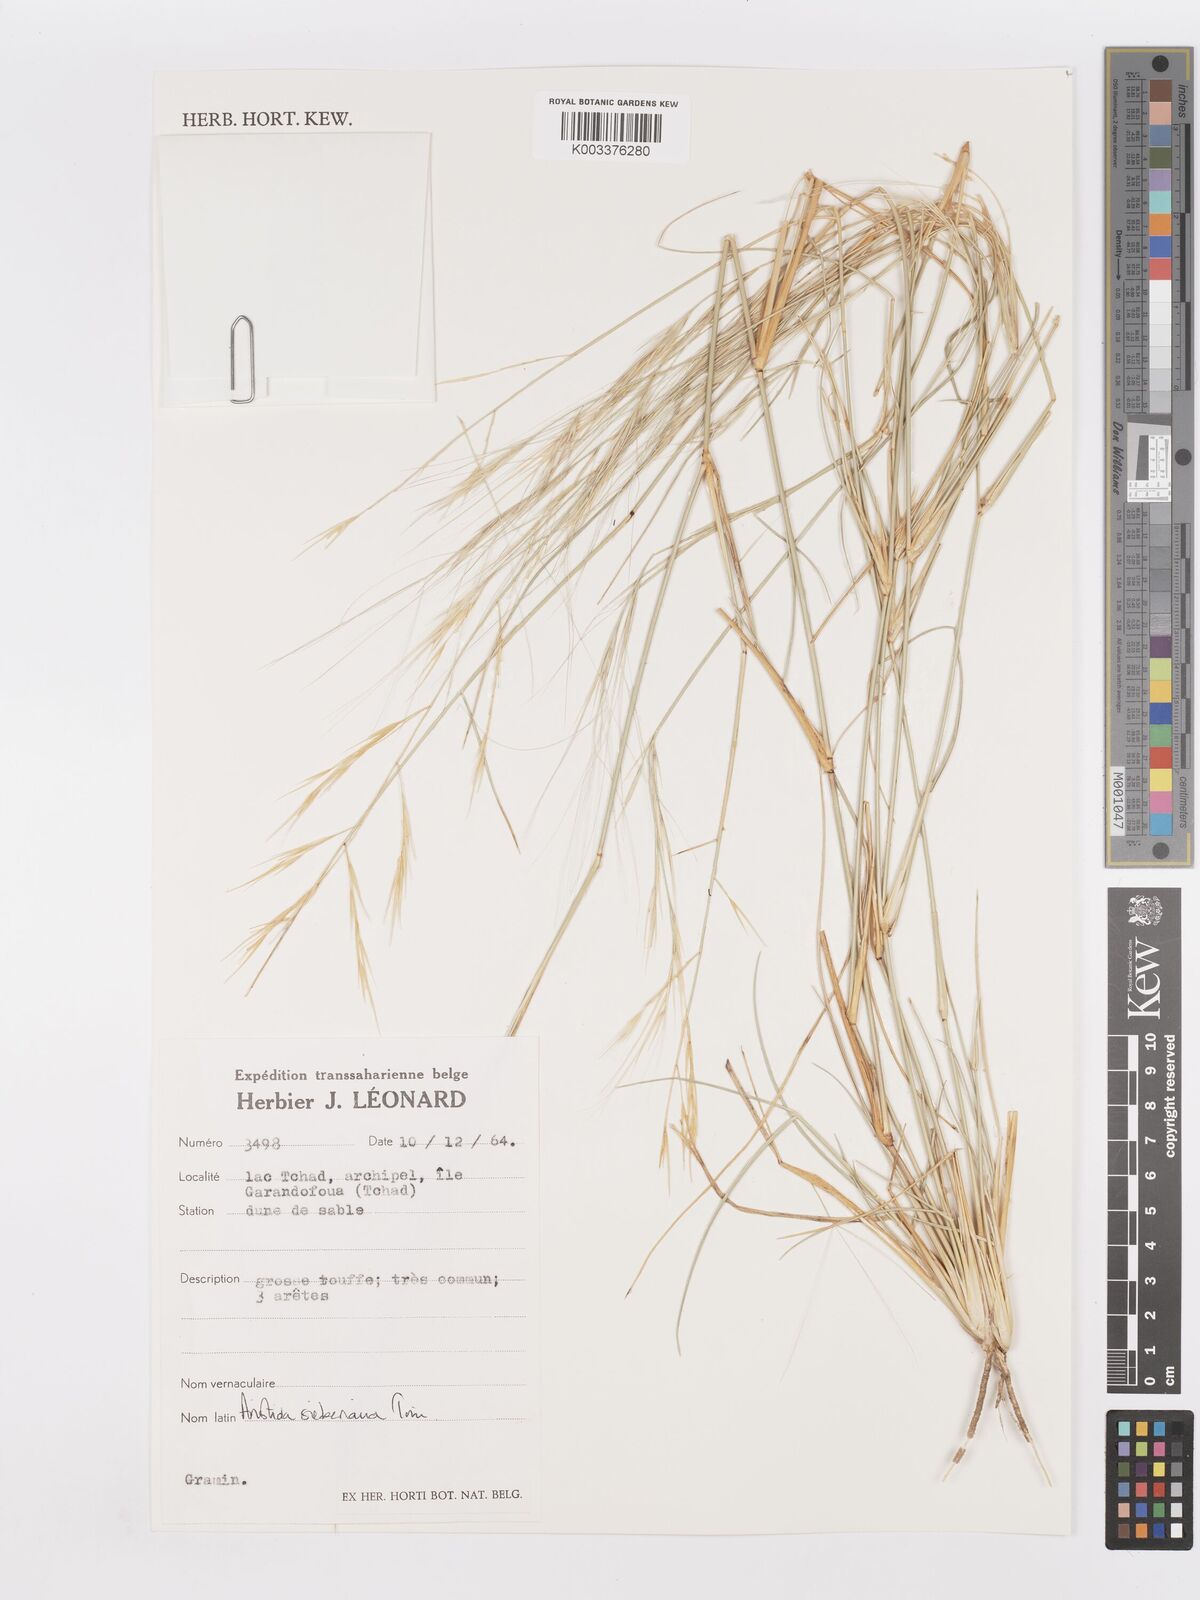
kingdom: Plantae
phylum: Tracheophyta
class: Liliopsida
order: Poales
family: Poaceae
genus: Aristida
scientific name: Aristida sieberiana
